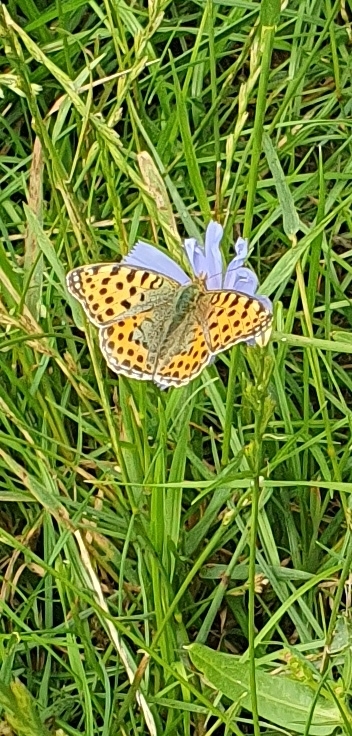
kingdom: Animalia
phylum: Arthropoda
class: Insecta
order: Lepidoptera
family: Nymphalidae
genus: Issoria
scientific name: Issoria lathonia
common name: Storplettet perlemorsommerfugl
